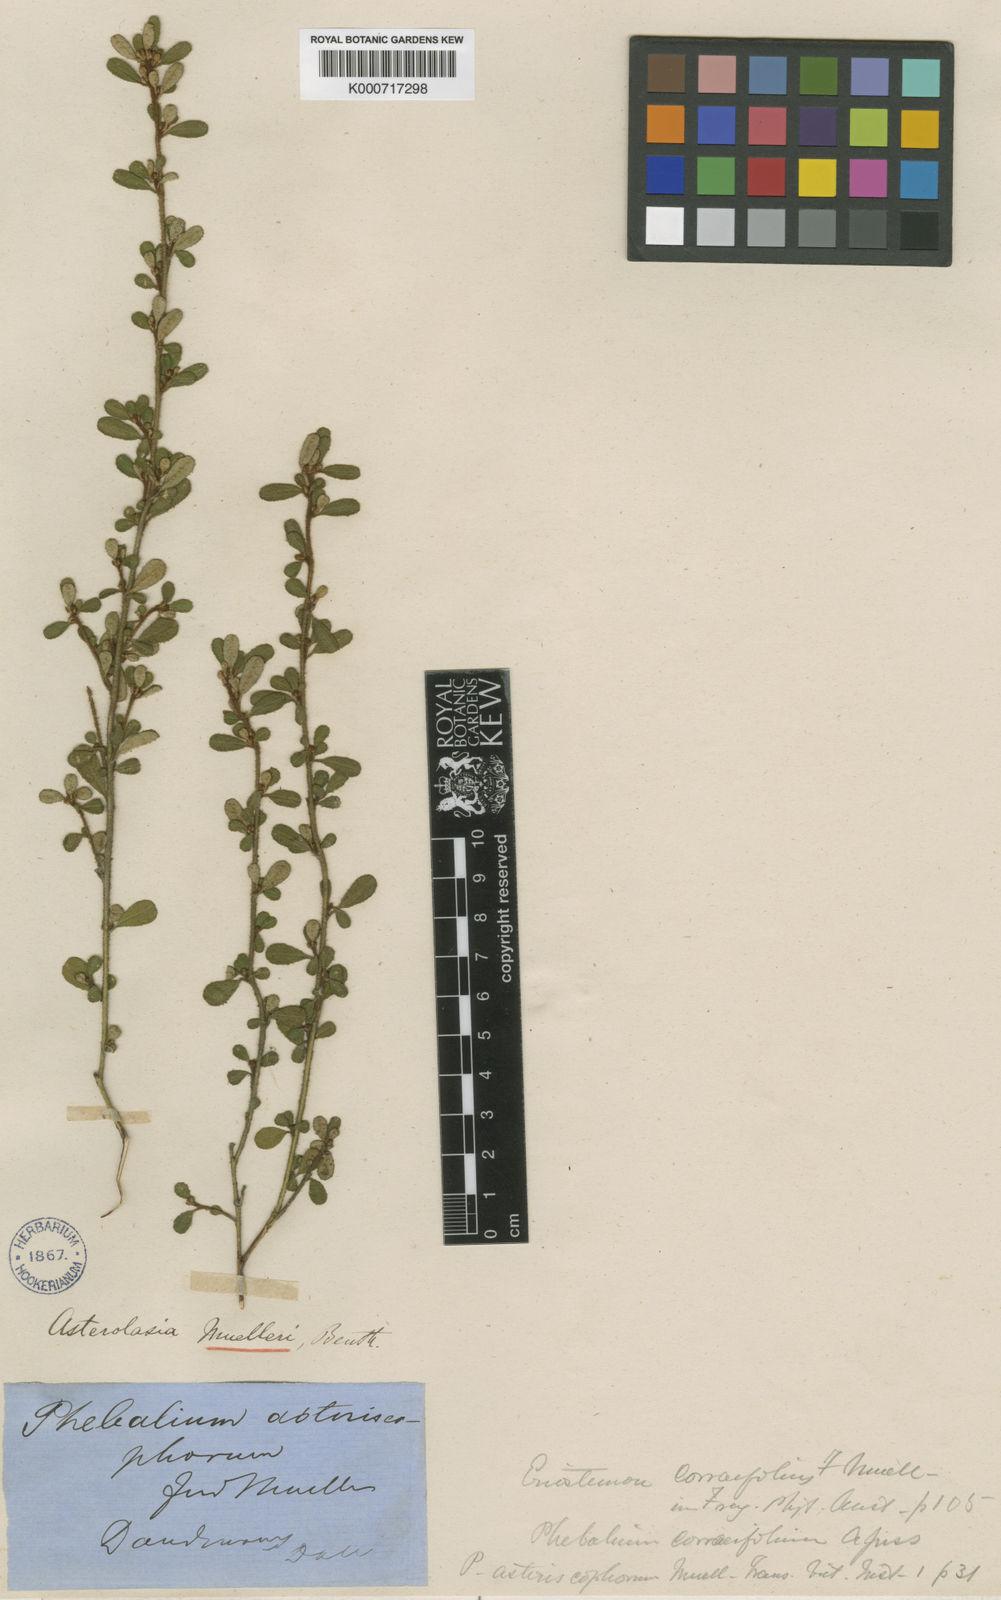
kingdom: Plantae
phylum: Tracheophyta
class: Magnoliopsida
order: Sapindales
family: Rutaceae
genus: Asterolasia
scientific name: Asterolasia asteriscophora
